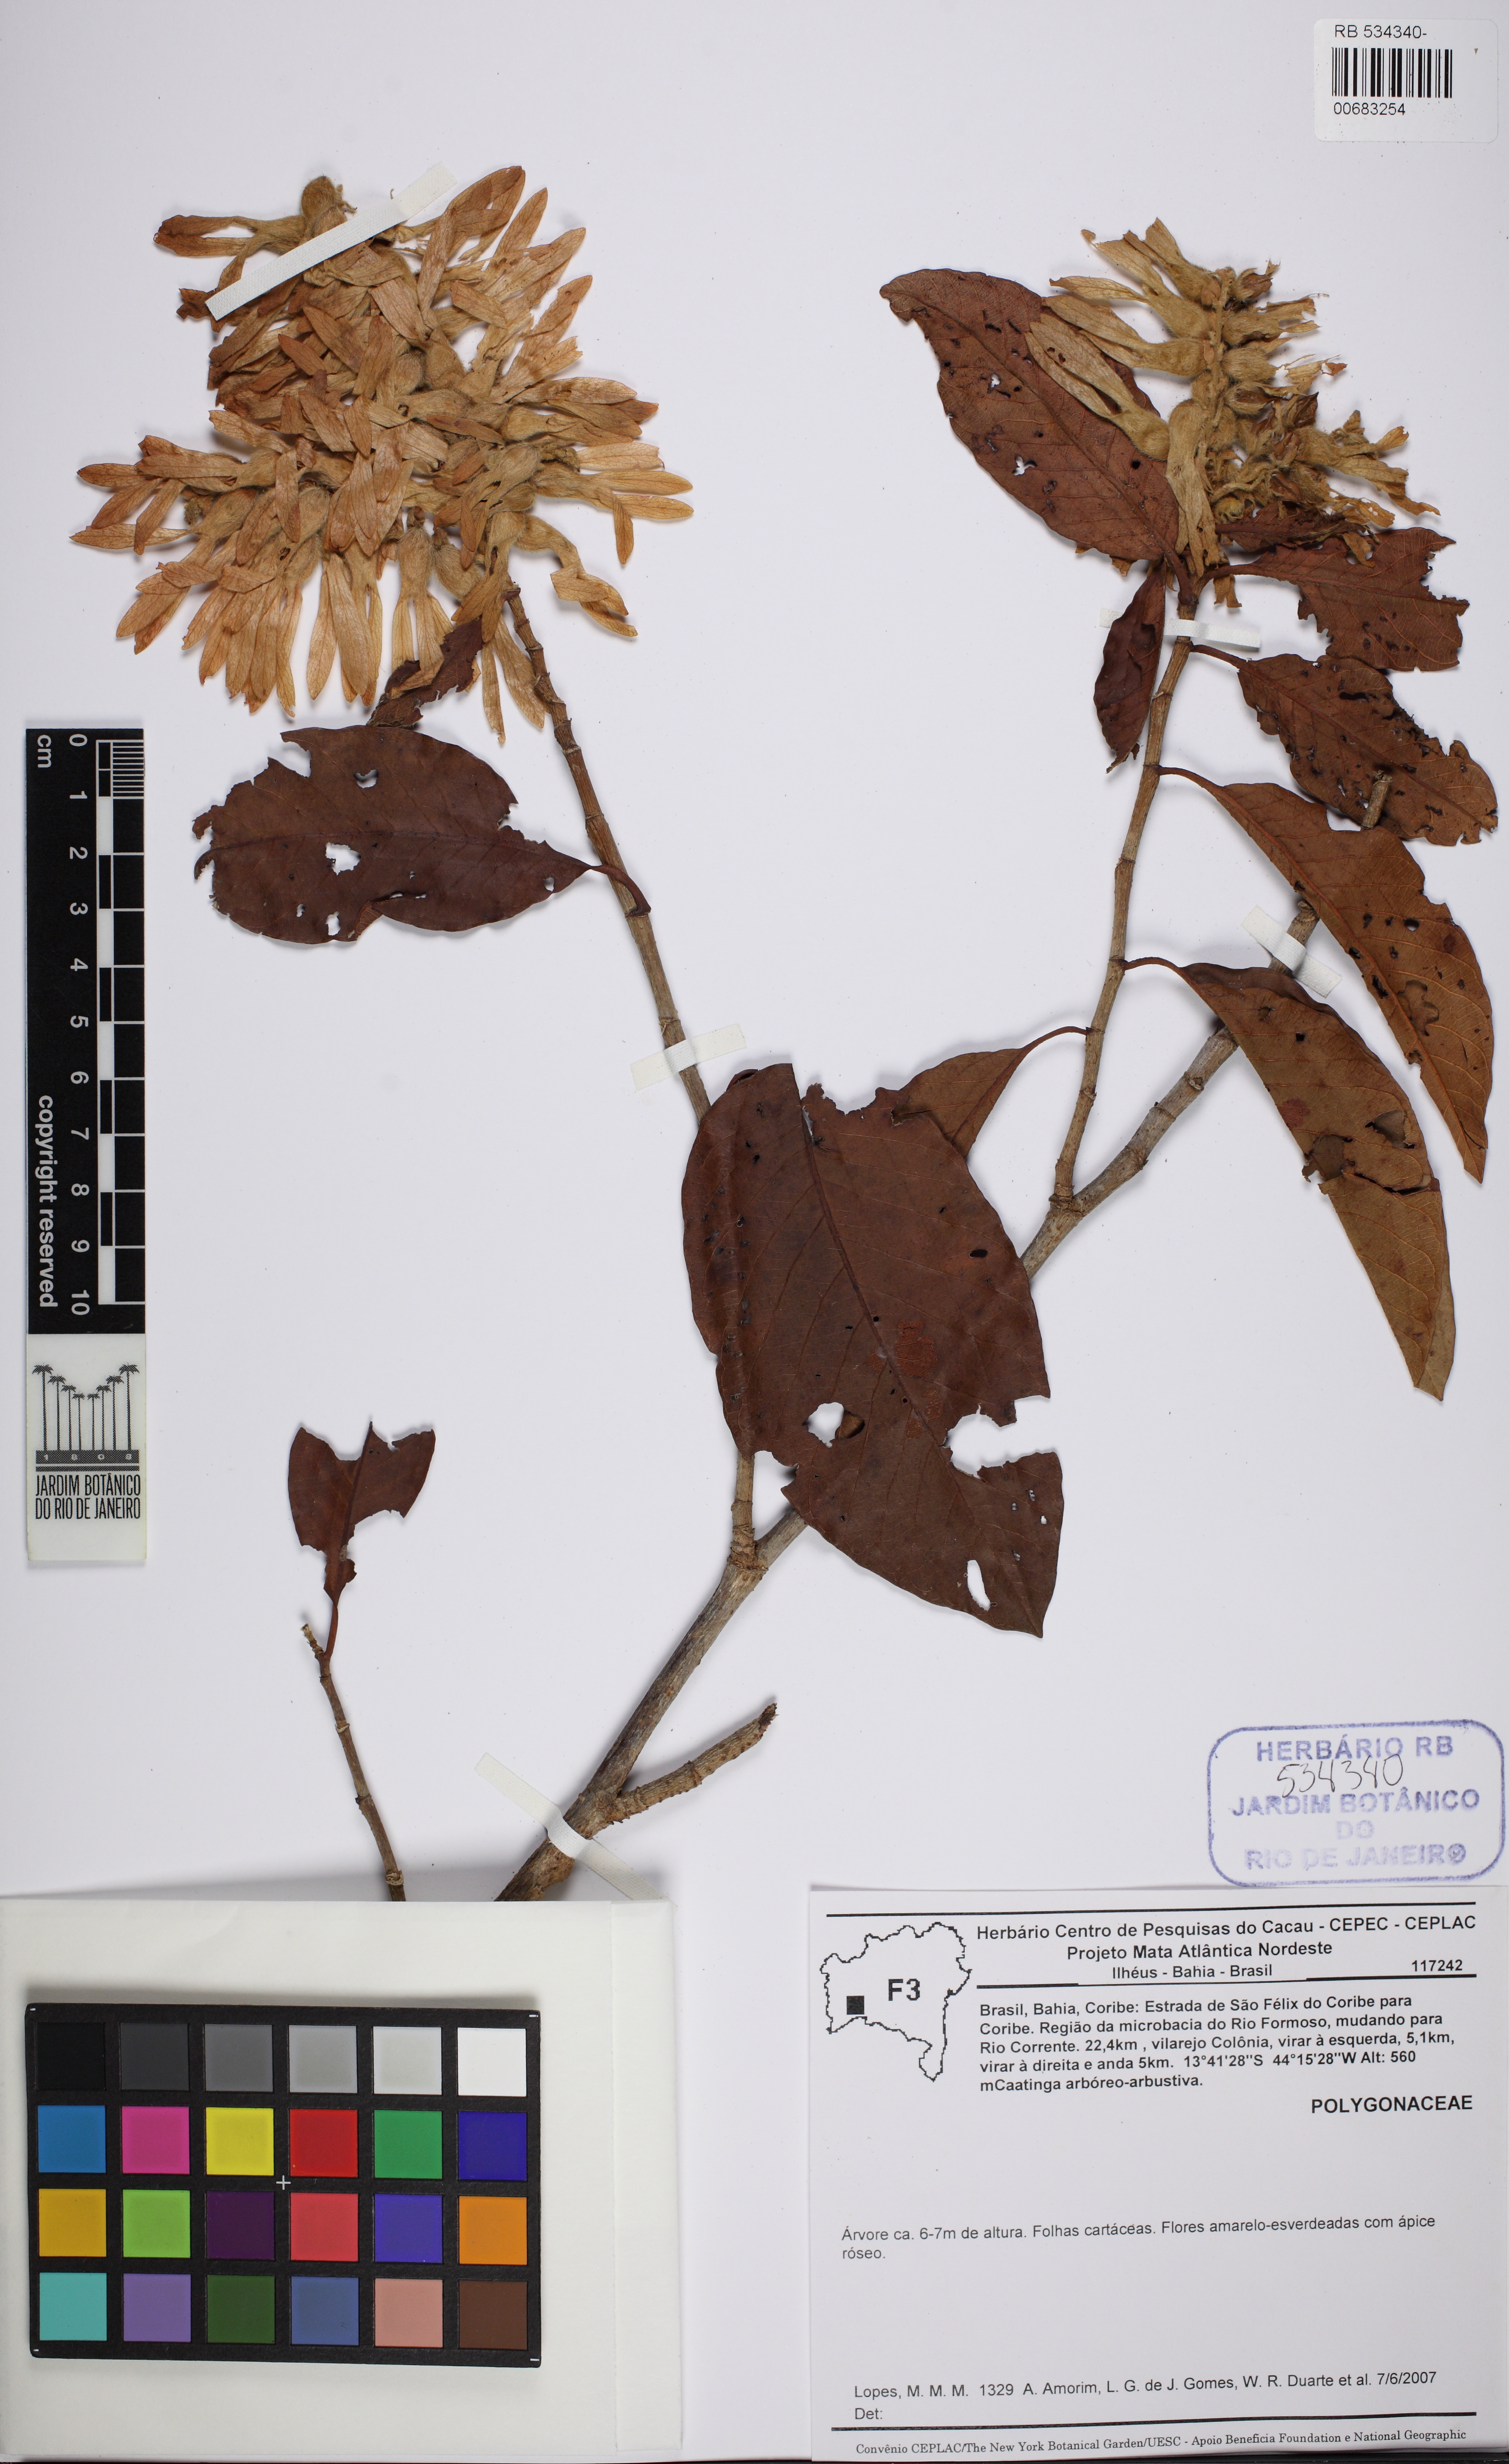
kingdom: Plantae
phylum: Tracheophyta
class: Magnoliopsida
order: Caryophyllales
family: Polygonaceae
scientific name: Polygonaceae
